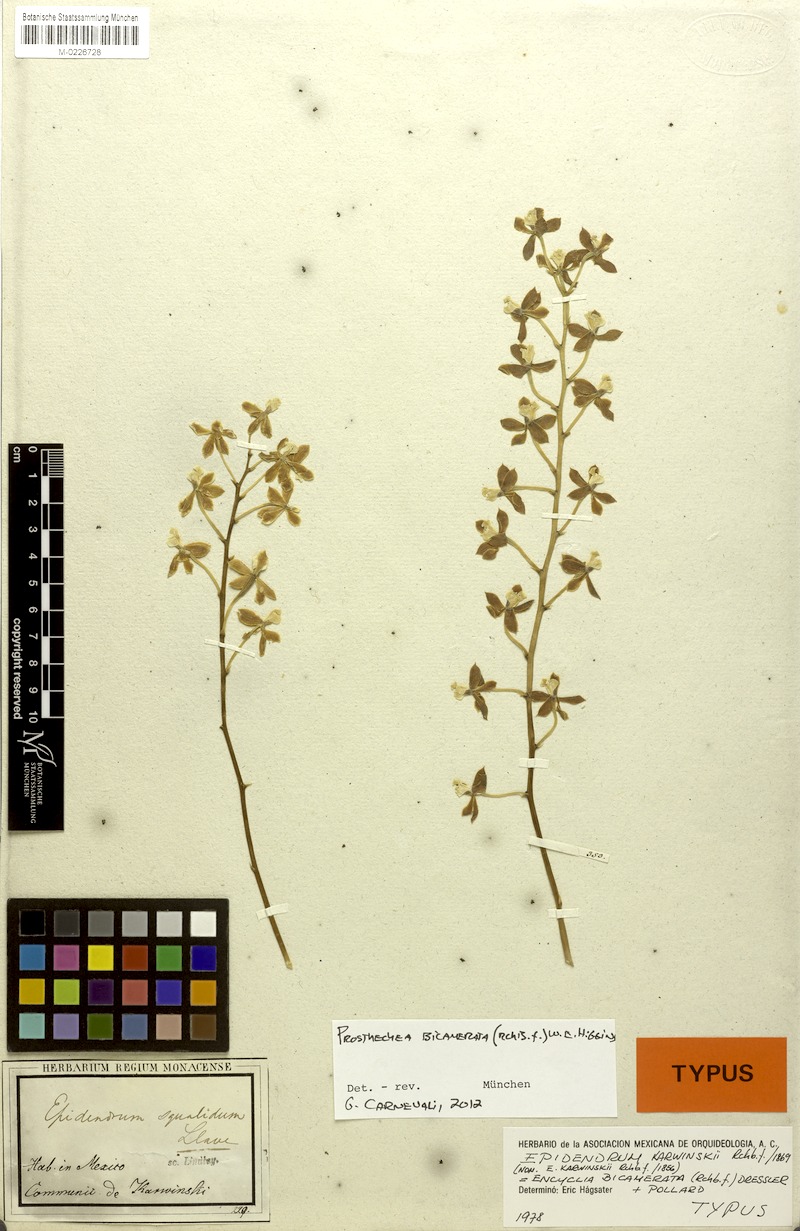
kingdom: Plantae
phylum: Tracheophyta
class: Liliopsida
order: Asparagales
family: Orchidaceae
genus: Prosthechea
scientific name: Prosthechea bicamerata
